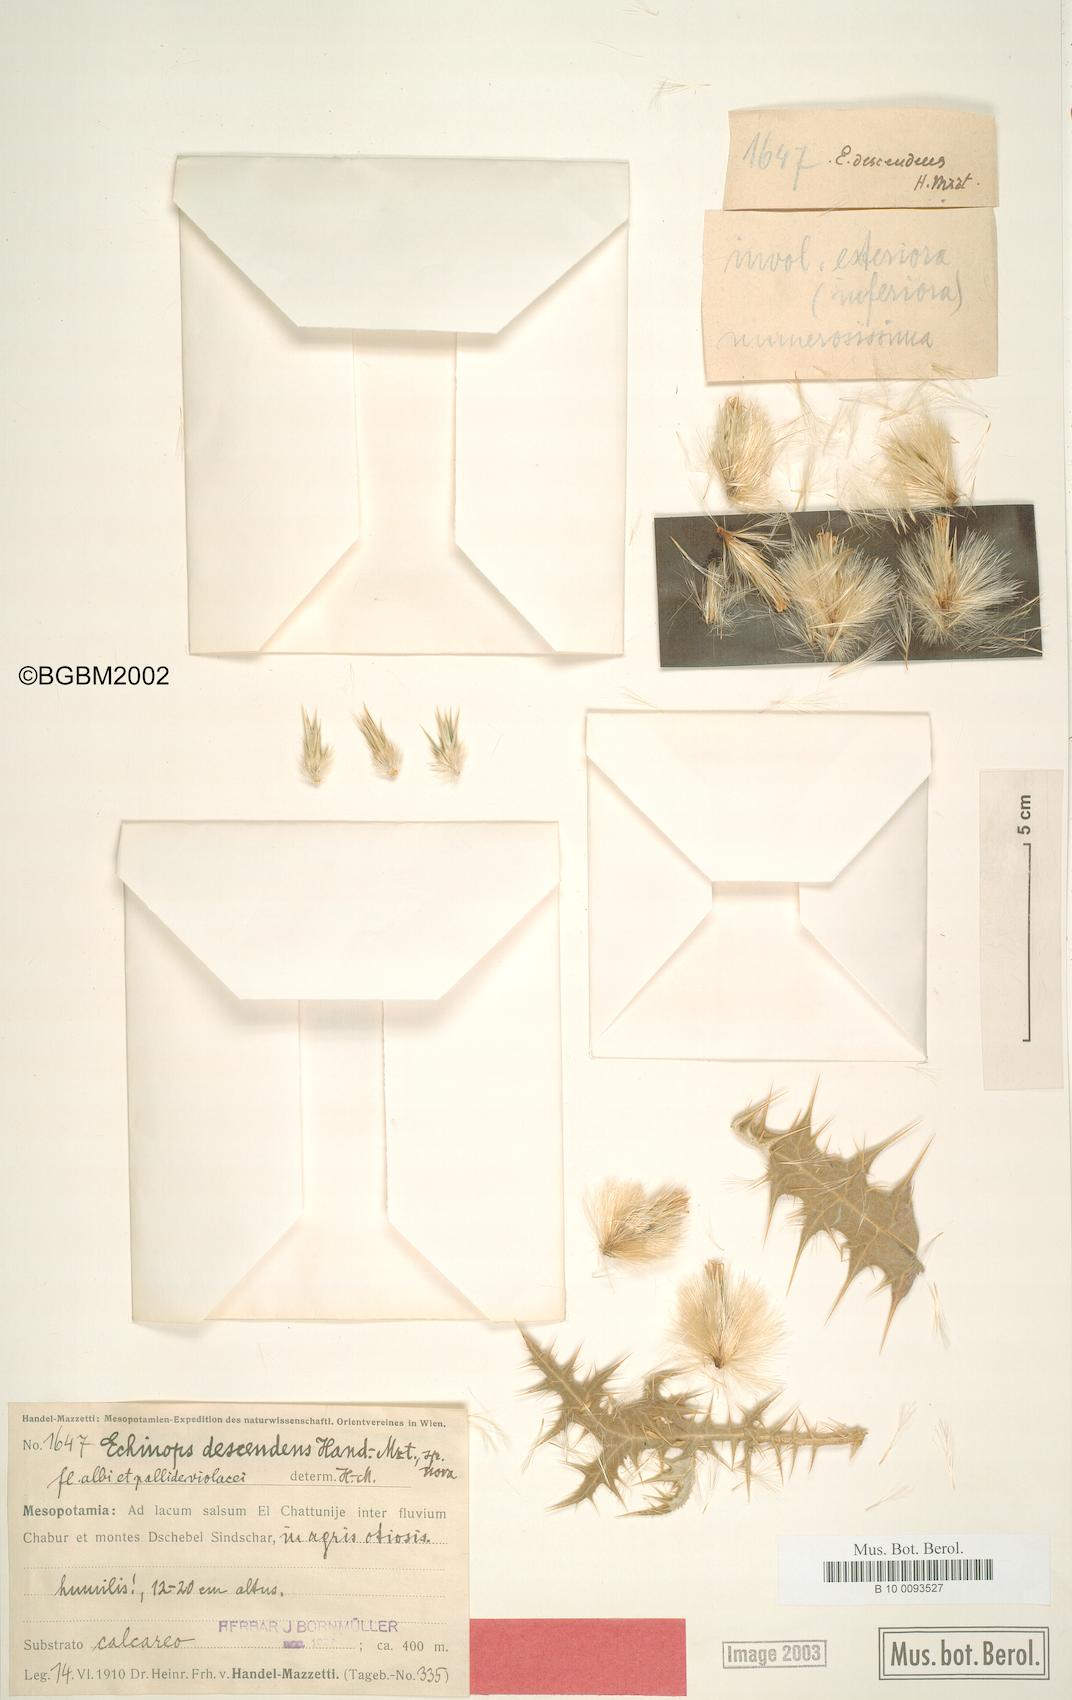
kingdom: Plantae
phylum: Tracheophyta
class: Magnoliopsida
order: Asterales
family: Asteraceae
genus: Echinops
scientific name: Echinops descendens
